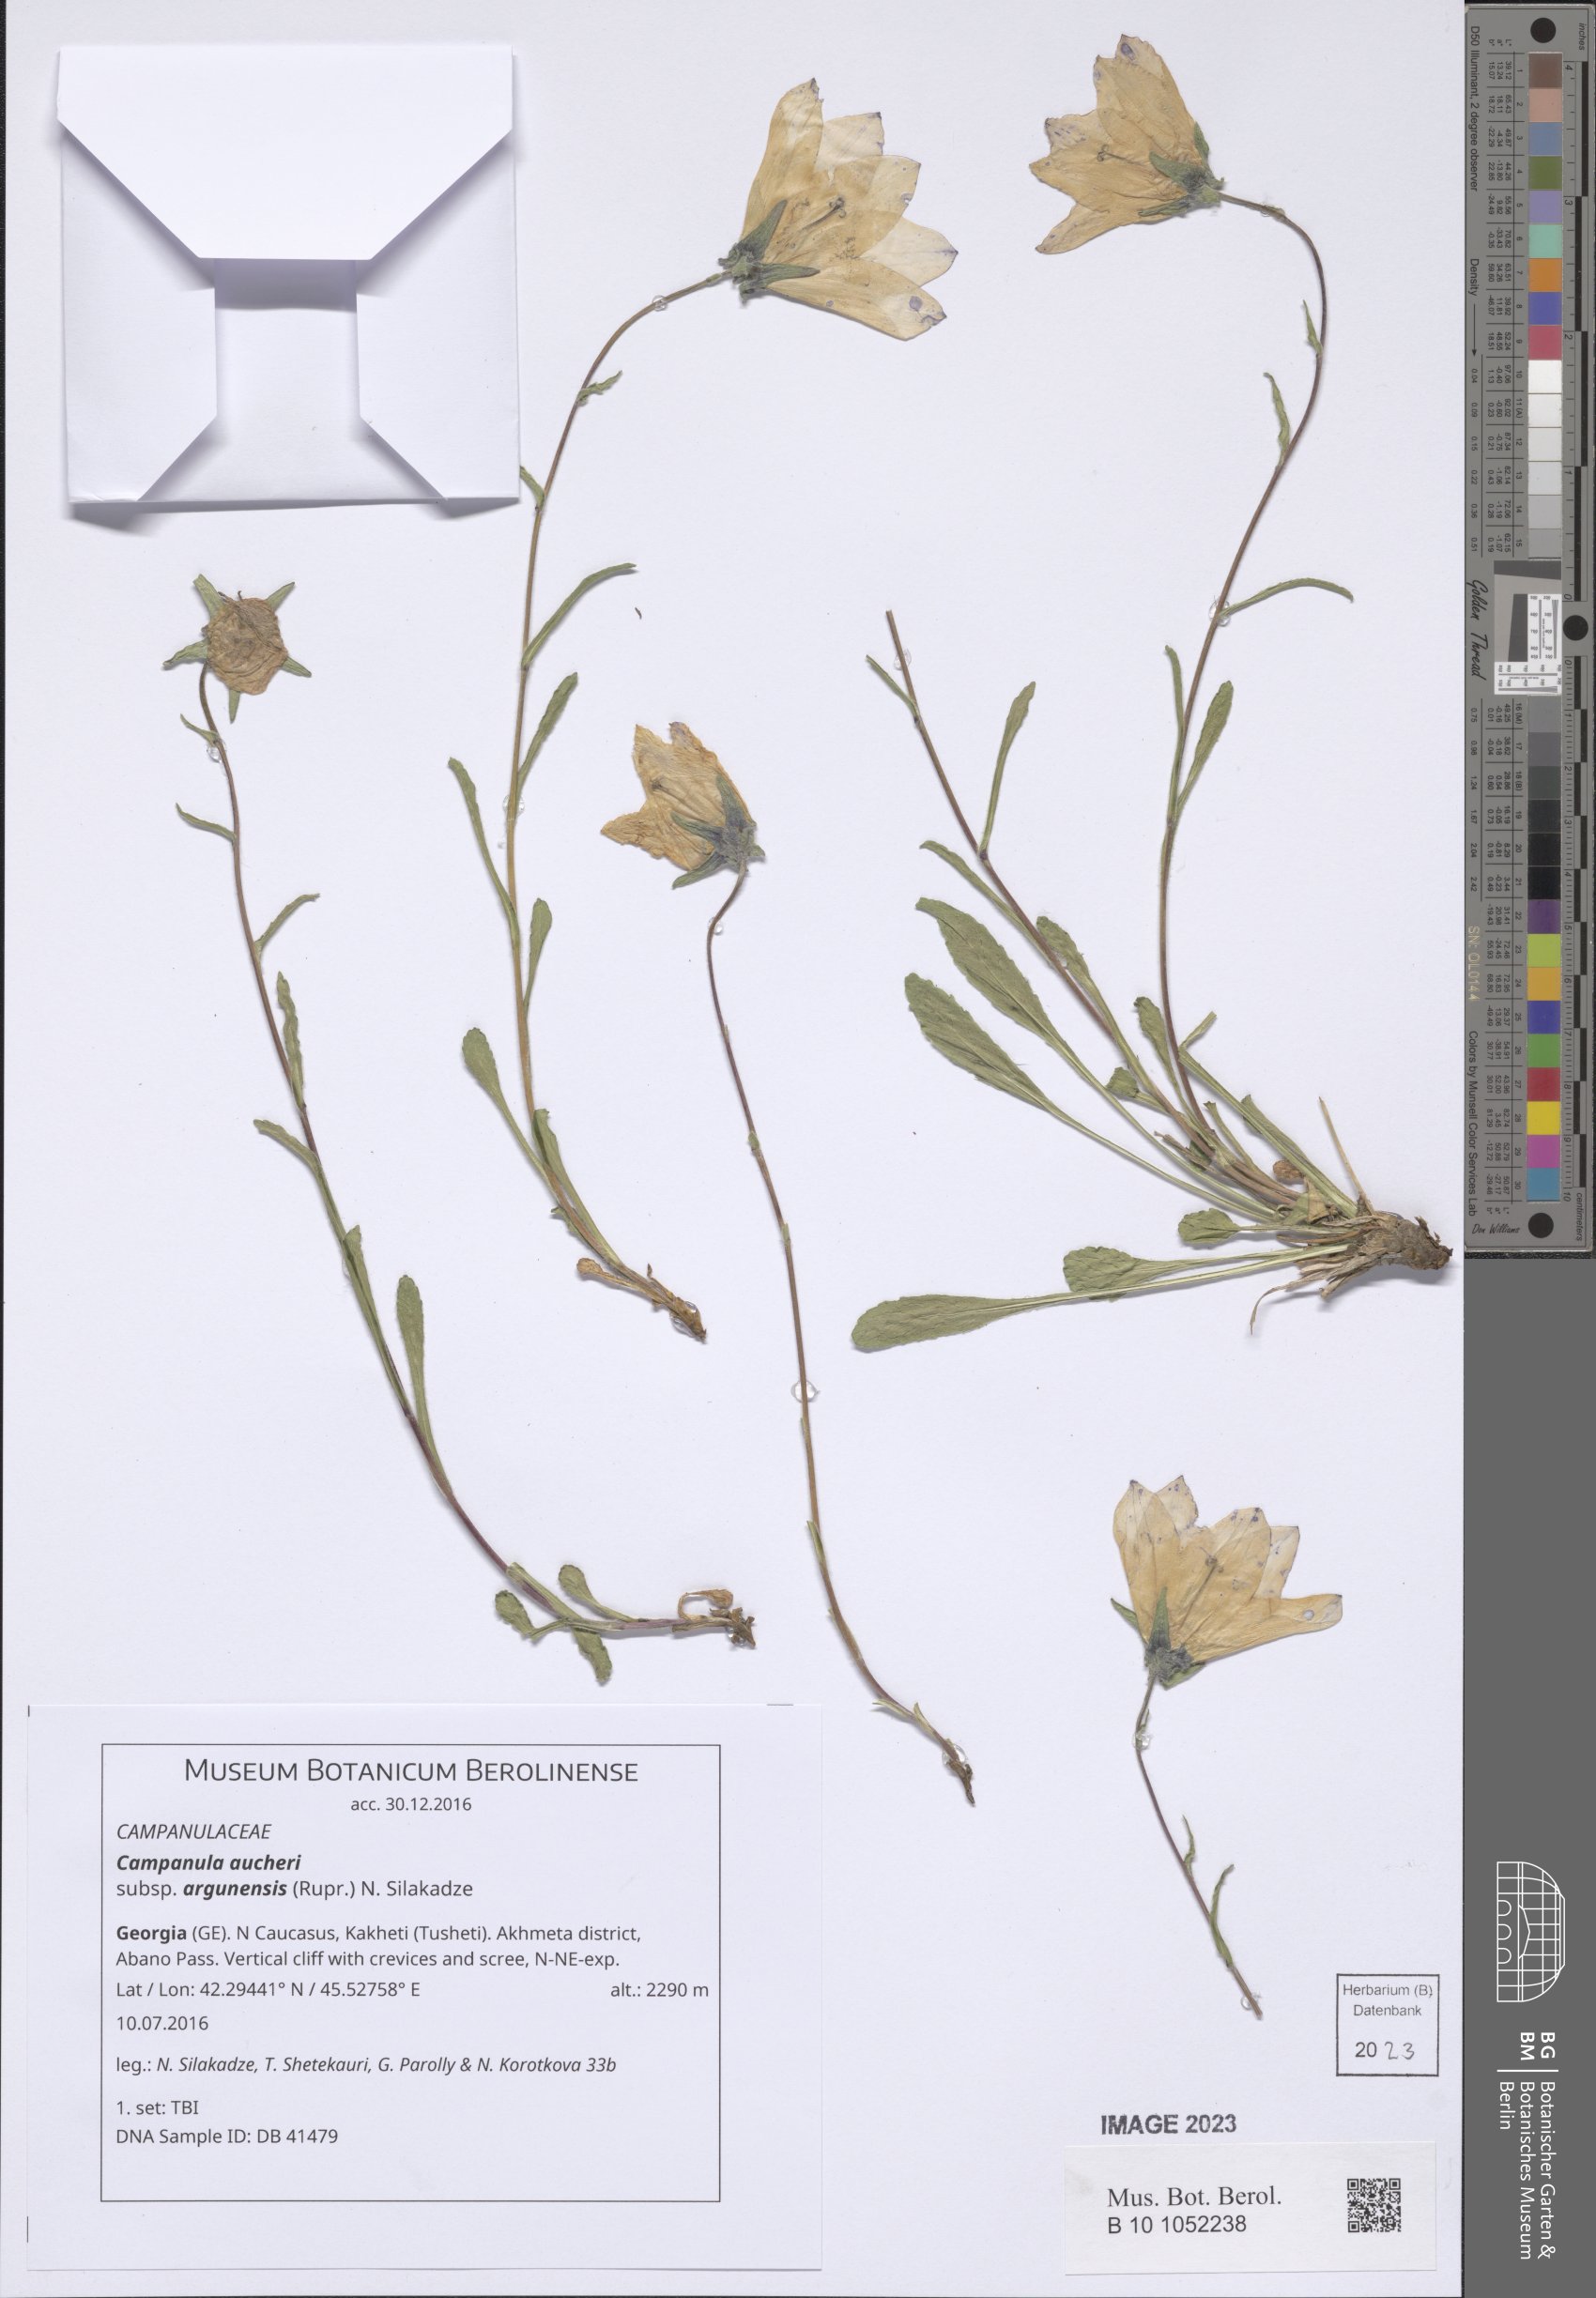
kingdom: Plantae
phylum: Tracheophyta
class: Magnoliopsida
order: Asterales
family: Campanulaceae
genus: Campanula
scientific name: Campanula saxifraga
